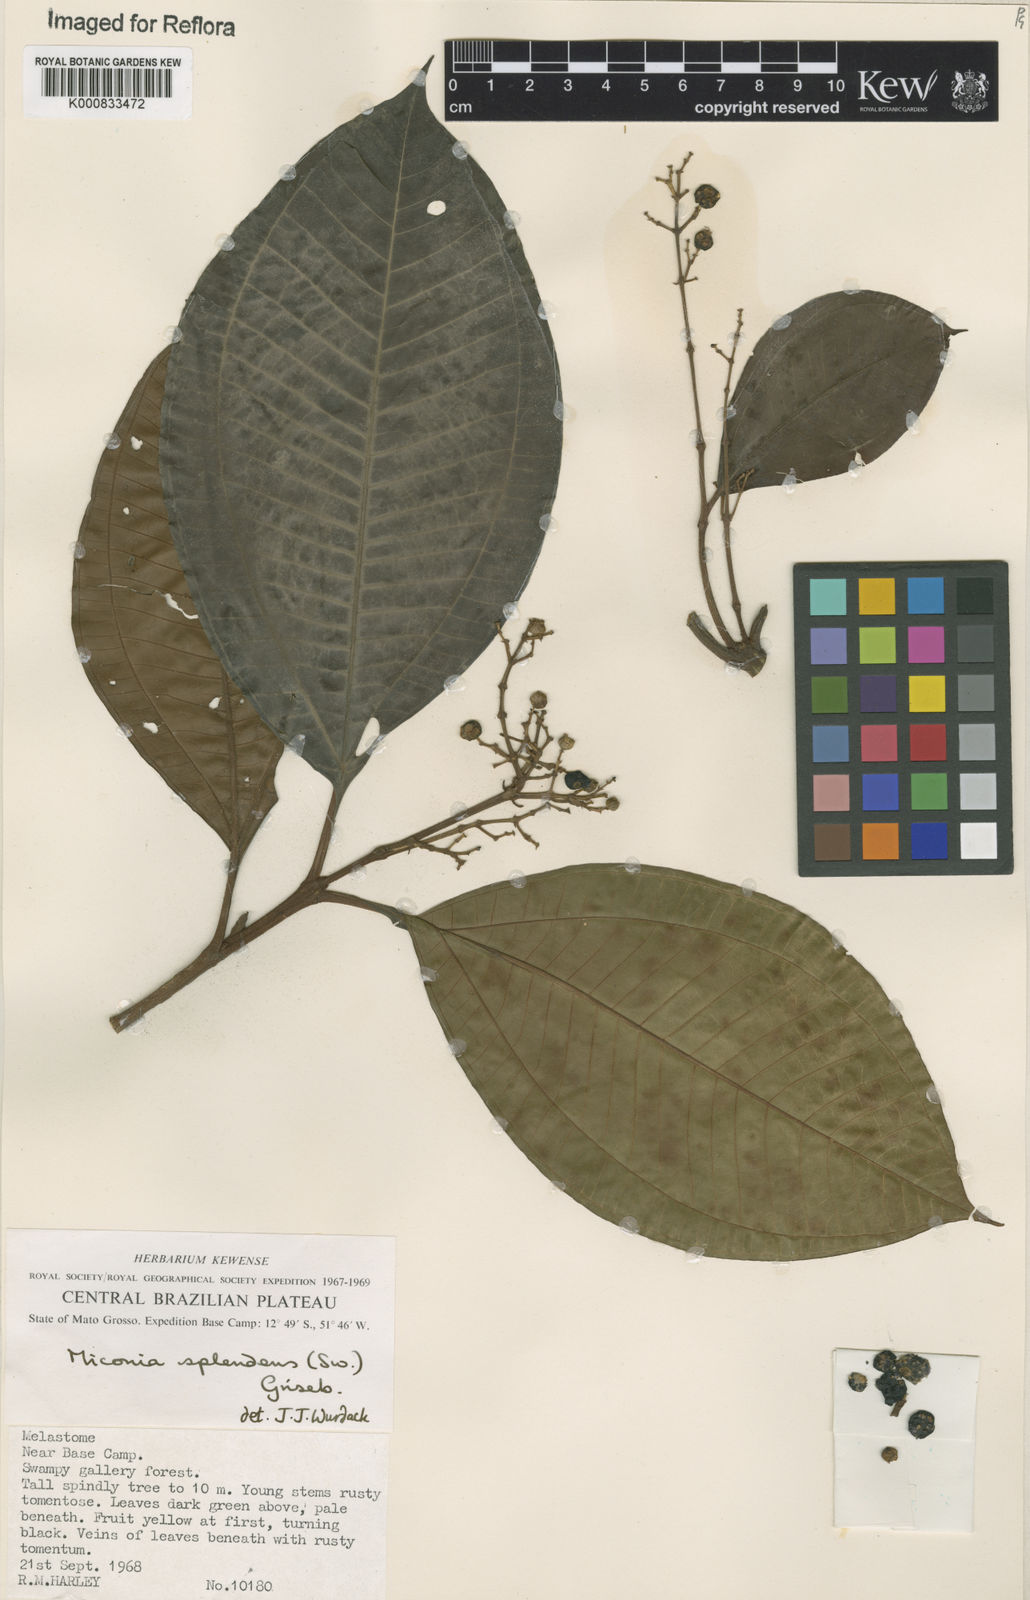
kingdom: Plantae
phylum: Tracheophyta
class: Magnoliopsida
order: Myrtales
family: Melastomataceae
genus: Miconia
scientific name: Miconia splendens
